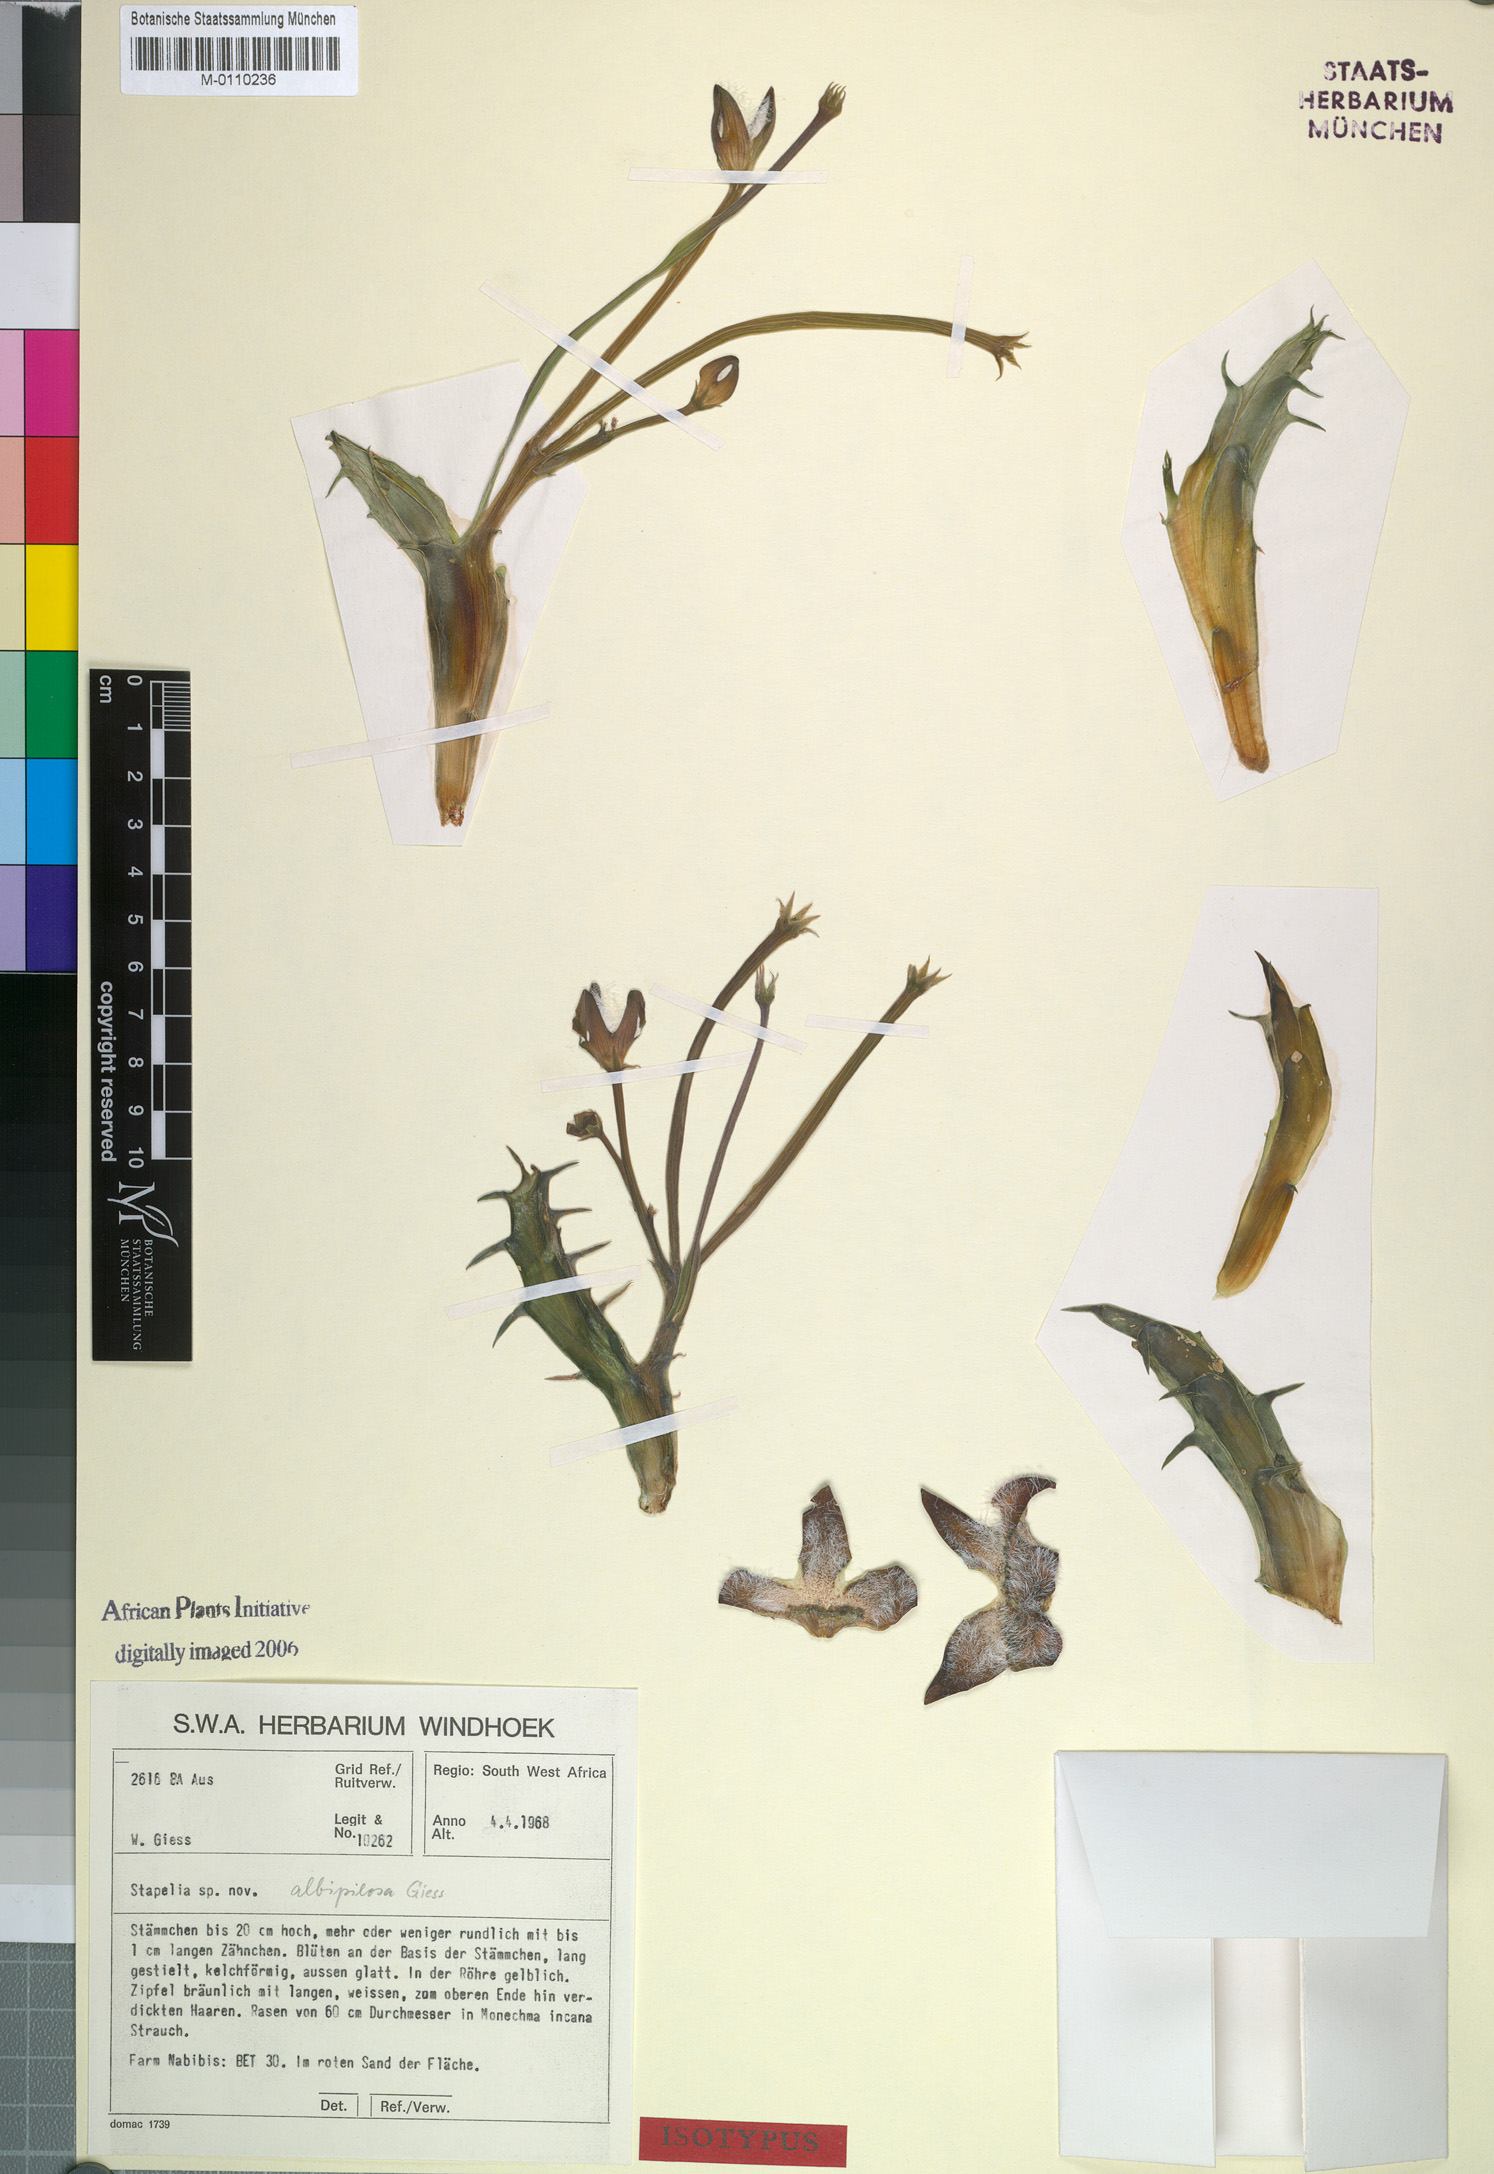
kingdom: Plantae
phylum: Tracheophyta
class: Magnoliopsida
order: Gentianales
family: Apocynaceae
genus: Ceropegia
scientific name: Ceropegia marientalensis
